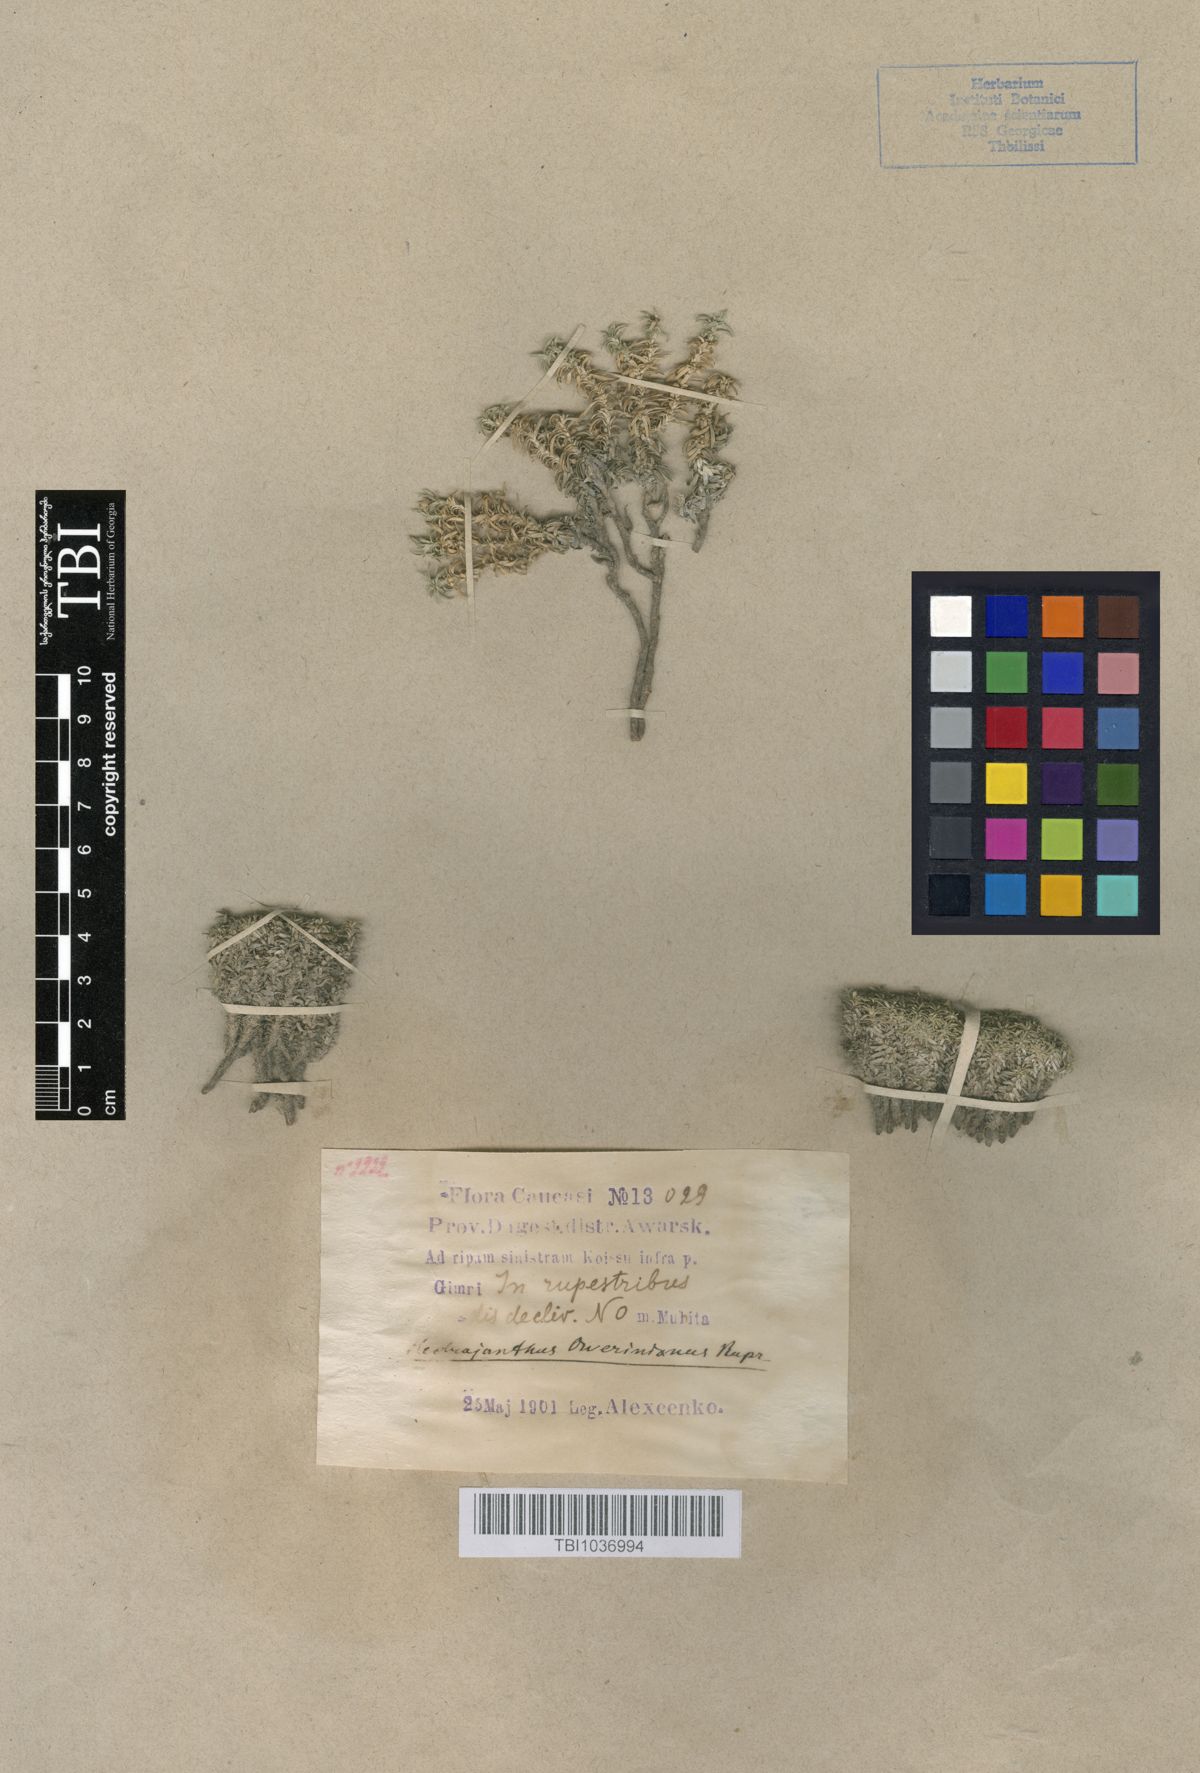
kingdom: Plantae
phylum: Tracheophyta
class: Magnoliopsida
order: Asterales
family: Campanulaceae
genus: Muehlbergella
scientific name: Muehlbergella oweriana
